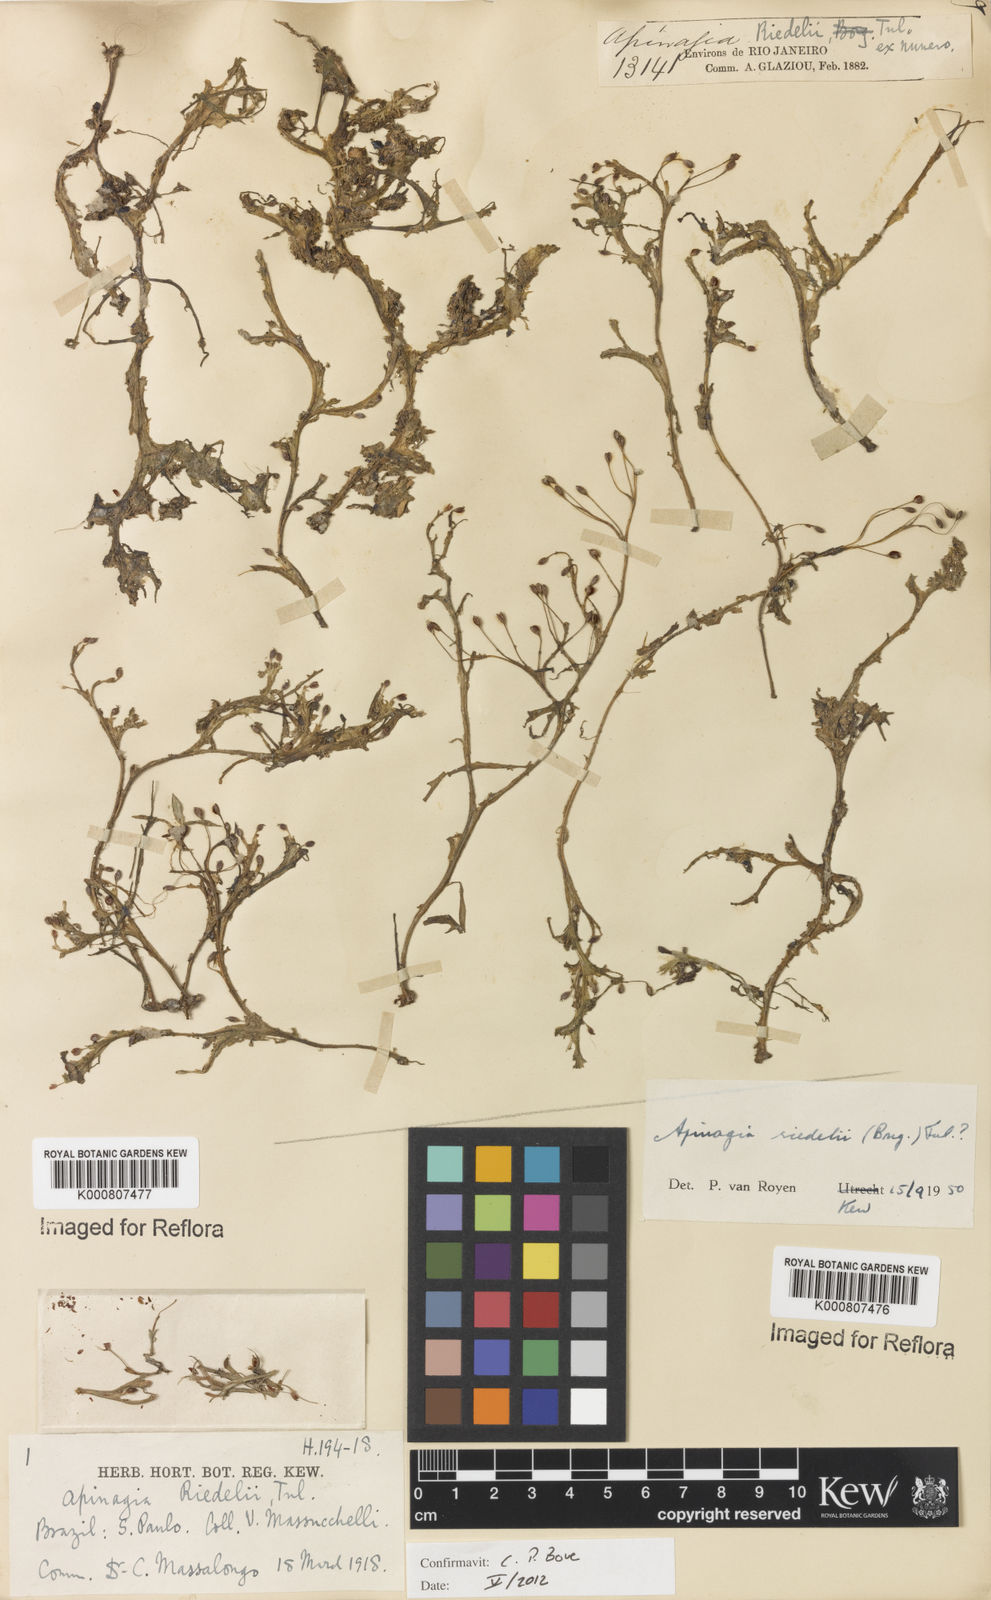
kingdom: Plantae
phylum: Tracheophyta
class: Magnoliopsida
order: Malpighiales
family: Podostemaceae
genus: Apinagia
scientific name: Apinagia riedelii
